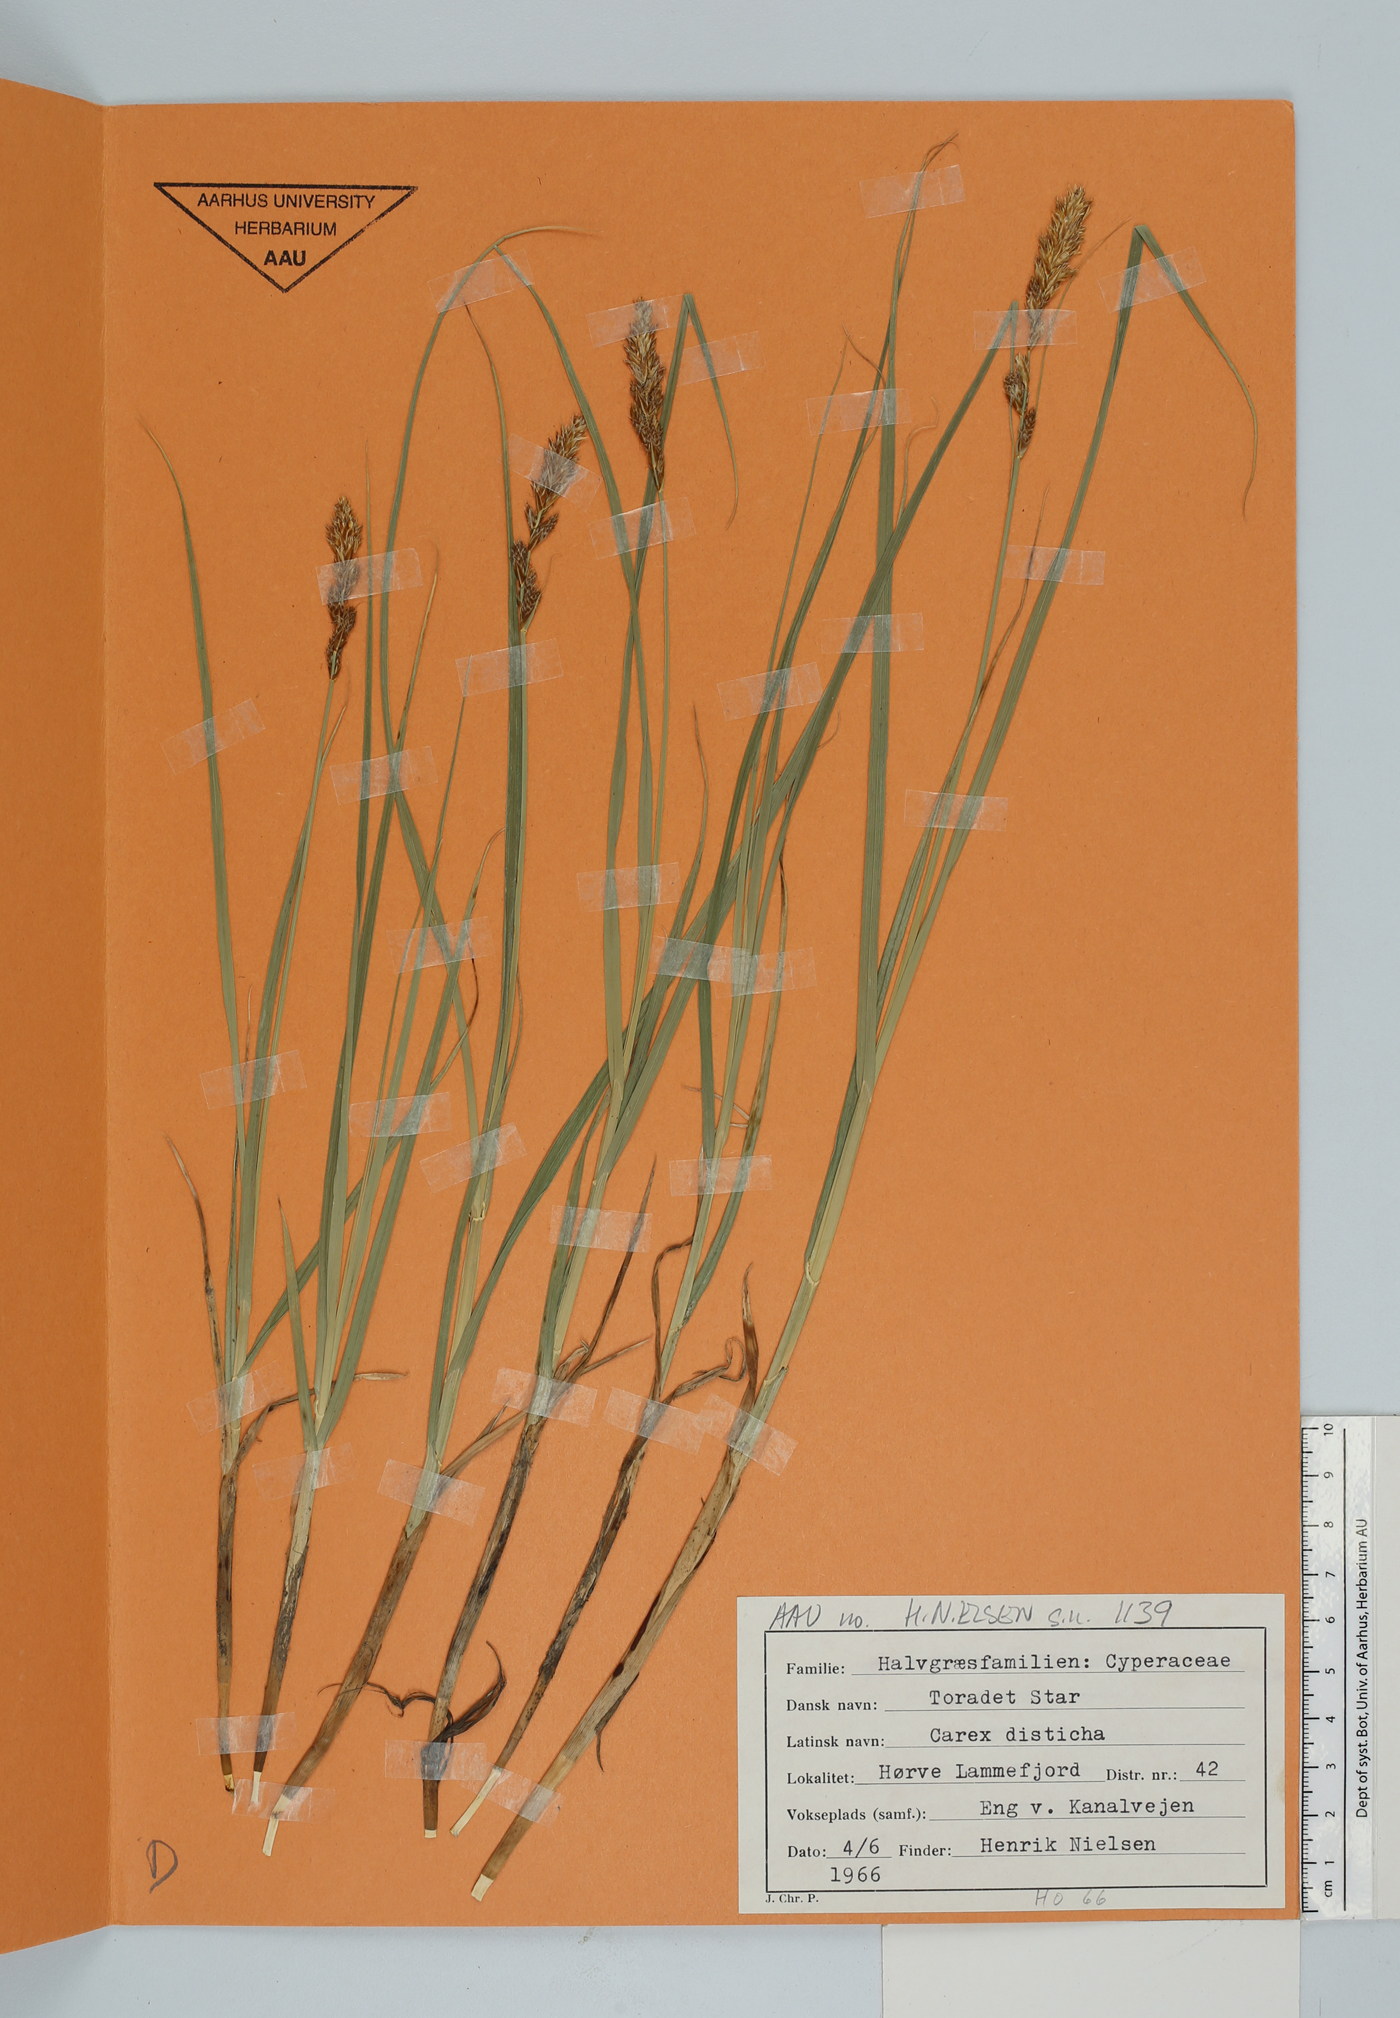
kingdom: Plantae
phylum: Tracheophyta
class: Liliopsida
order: Poales
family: Cyperaceae
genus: Carex
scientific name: Carex disticha
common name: Brown sedge
